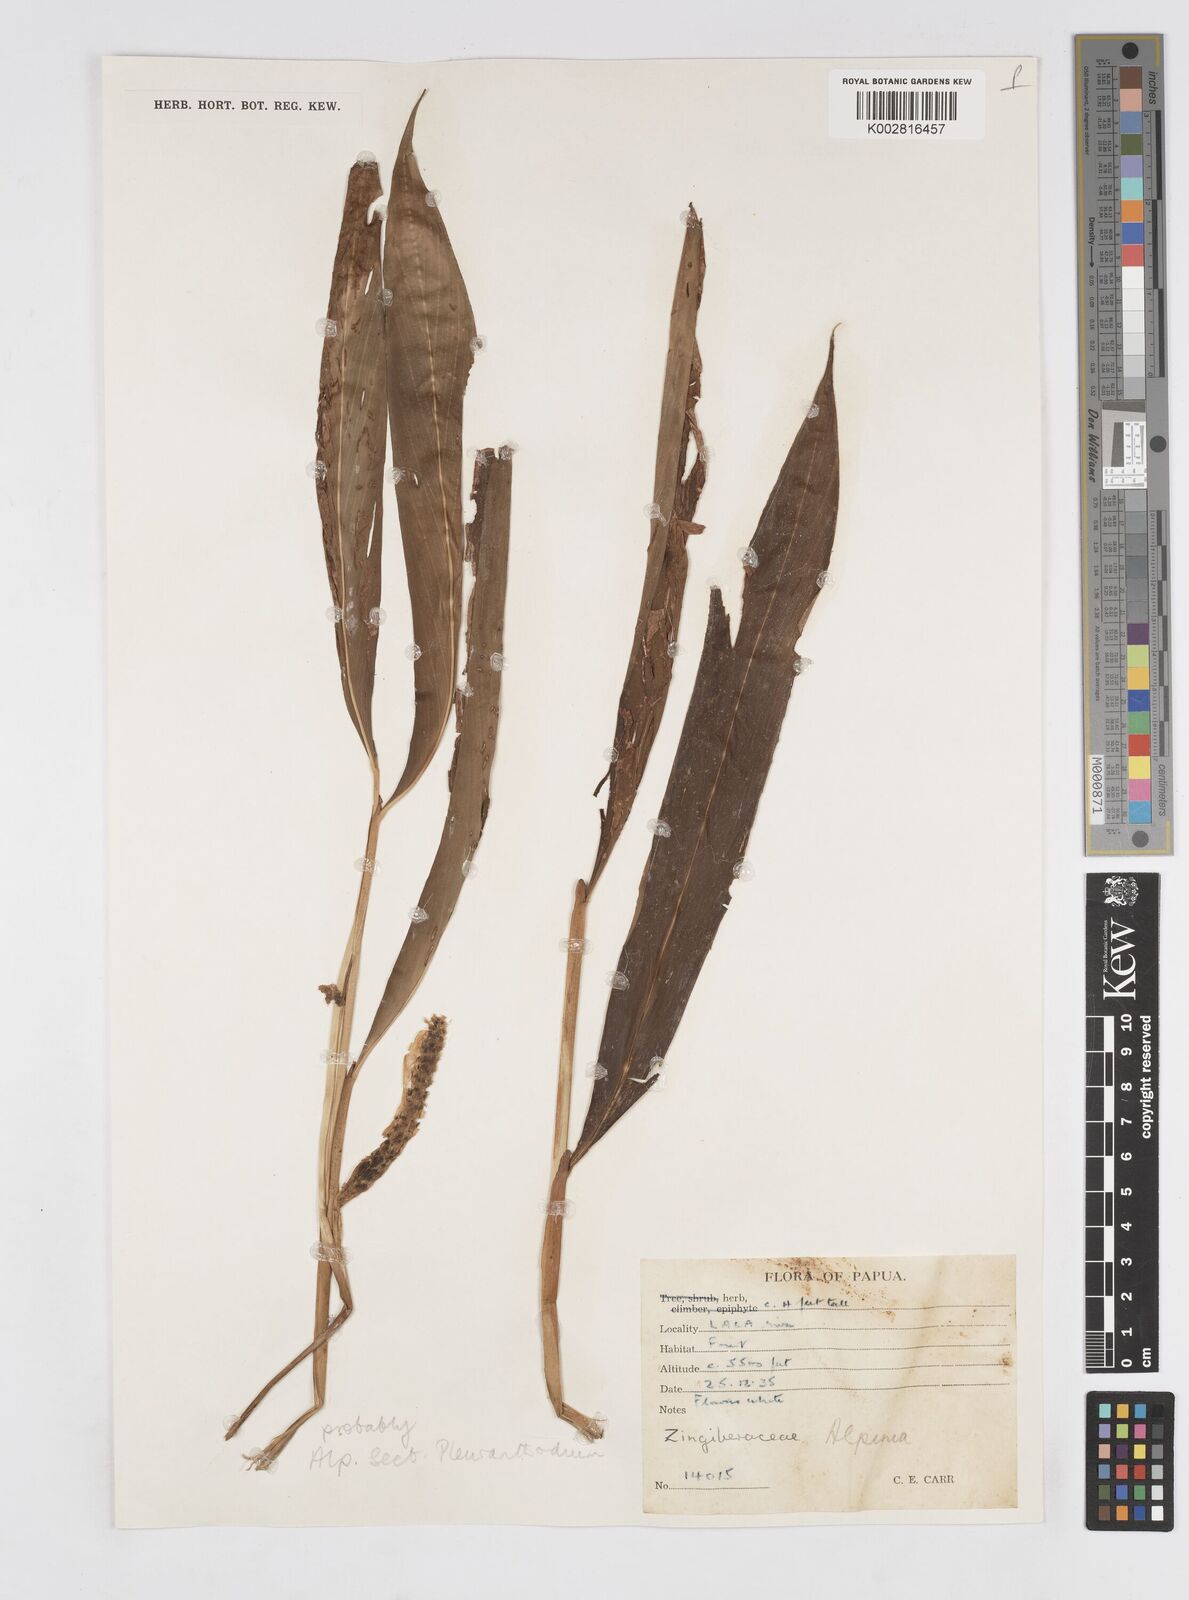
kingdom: Plantae
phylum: Tracheophyta
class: Liliopsida
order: Zingiberales
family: Zingiberaceae
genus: Alpinia
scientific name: Alpinia
